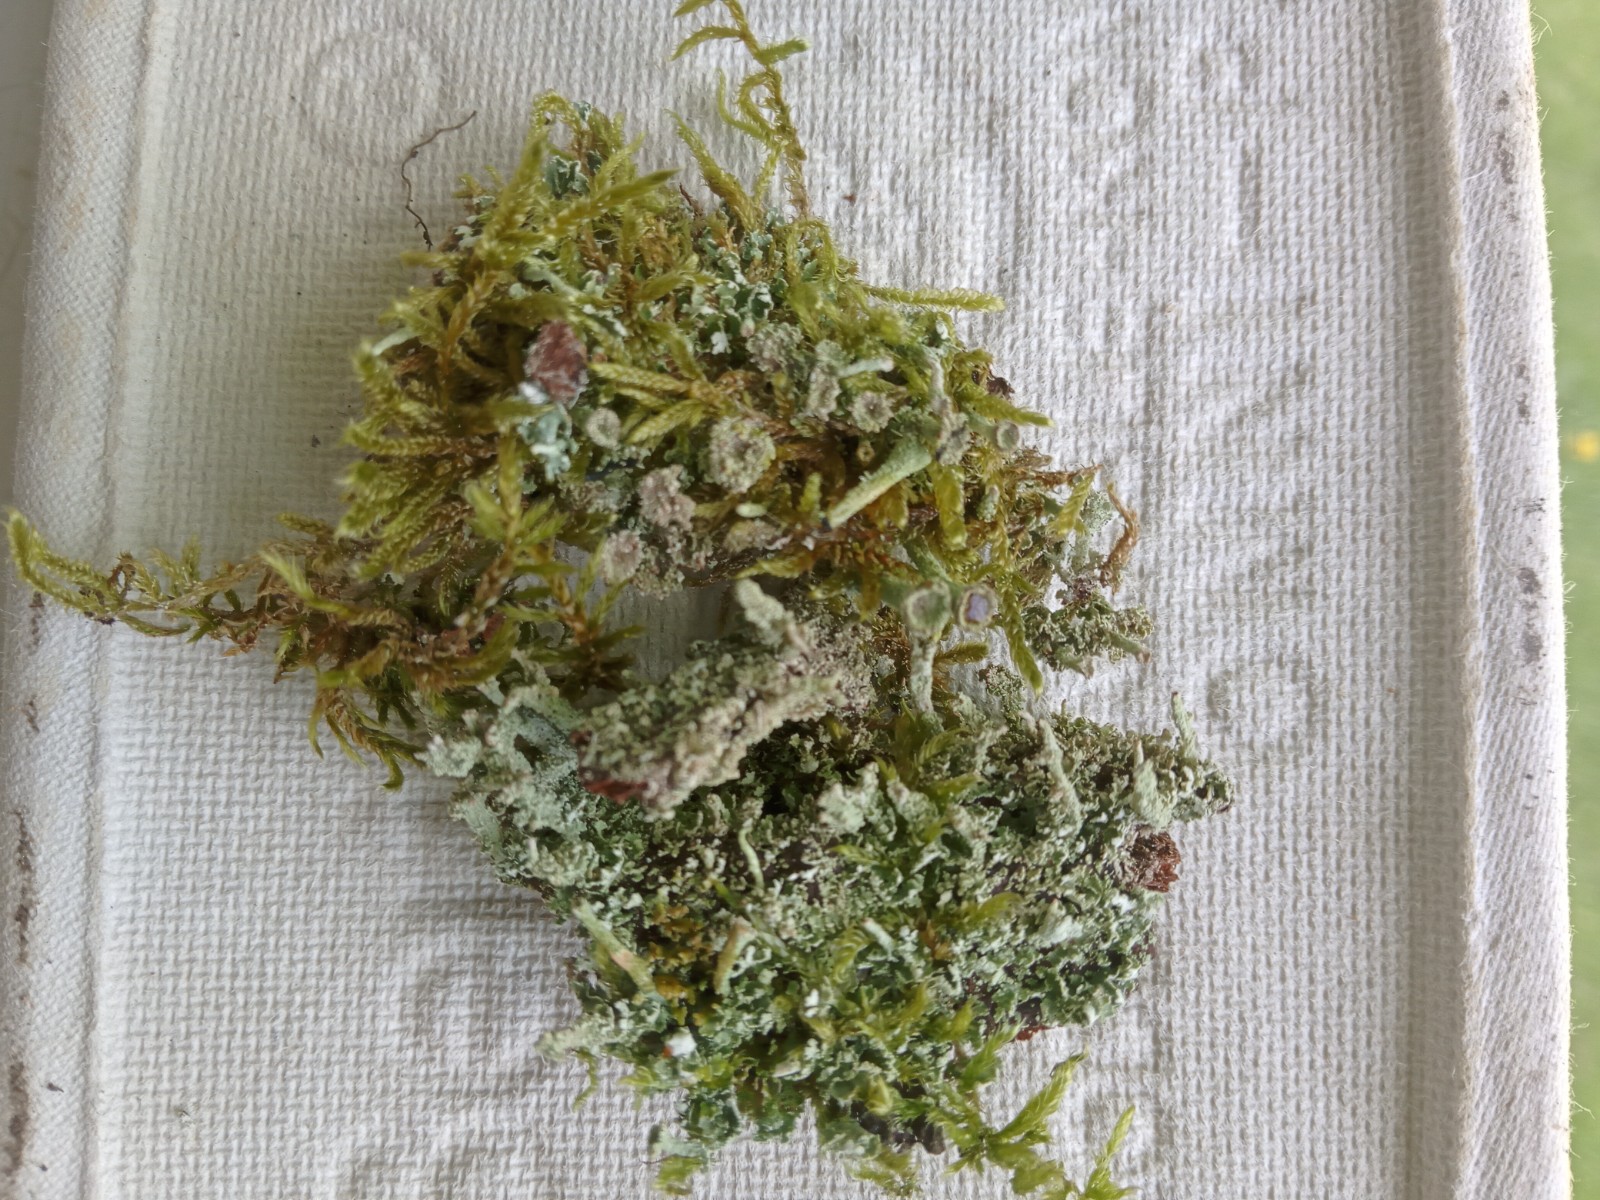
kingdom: Fungi
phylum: Ascomycota
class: Lecanoromycetes
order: Lecanorales
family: Cladoniaceae
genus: Cladonia
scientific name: Cladonia
